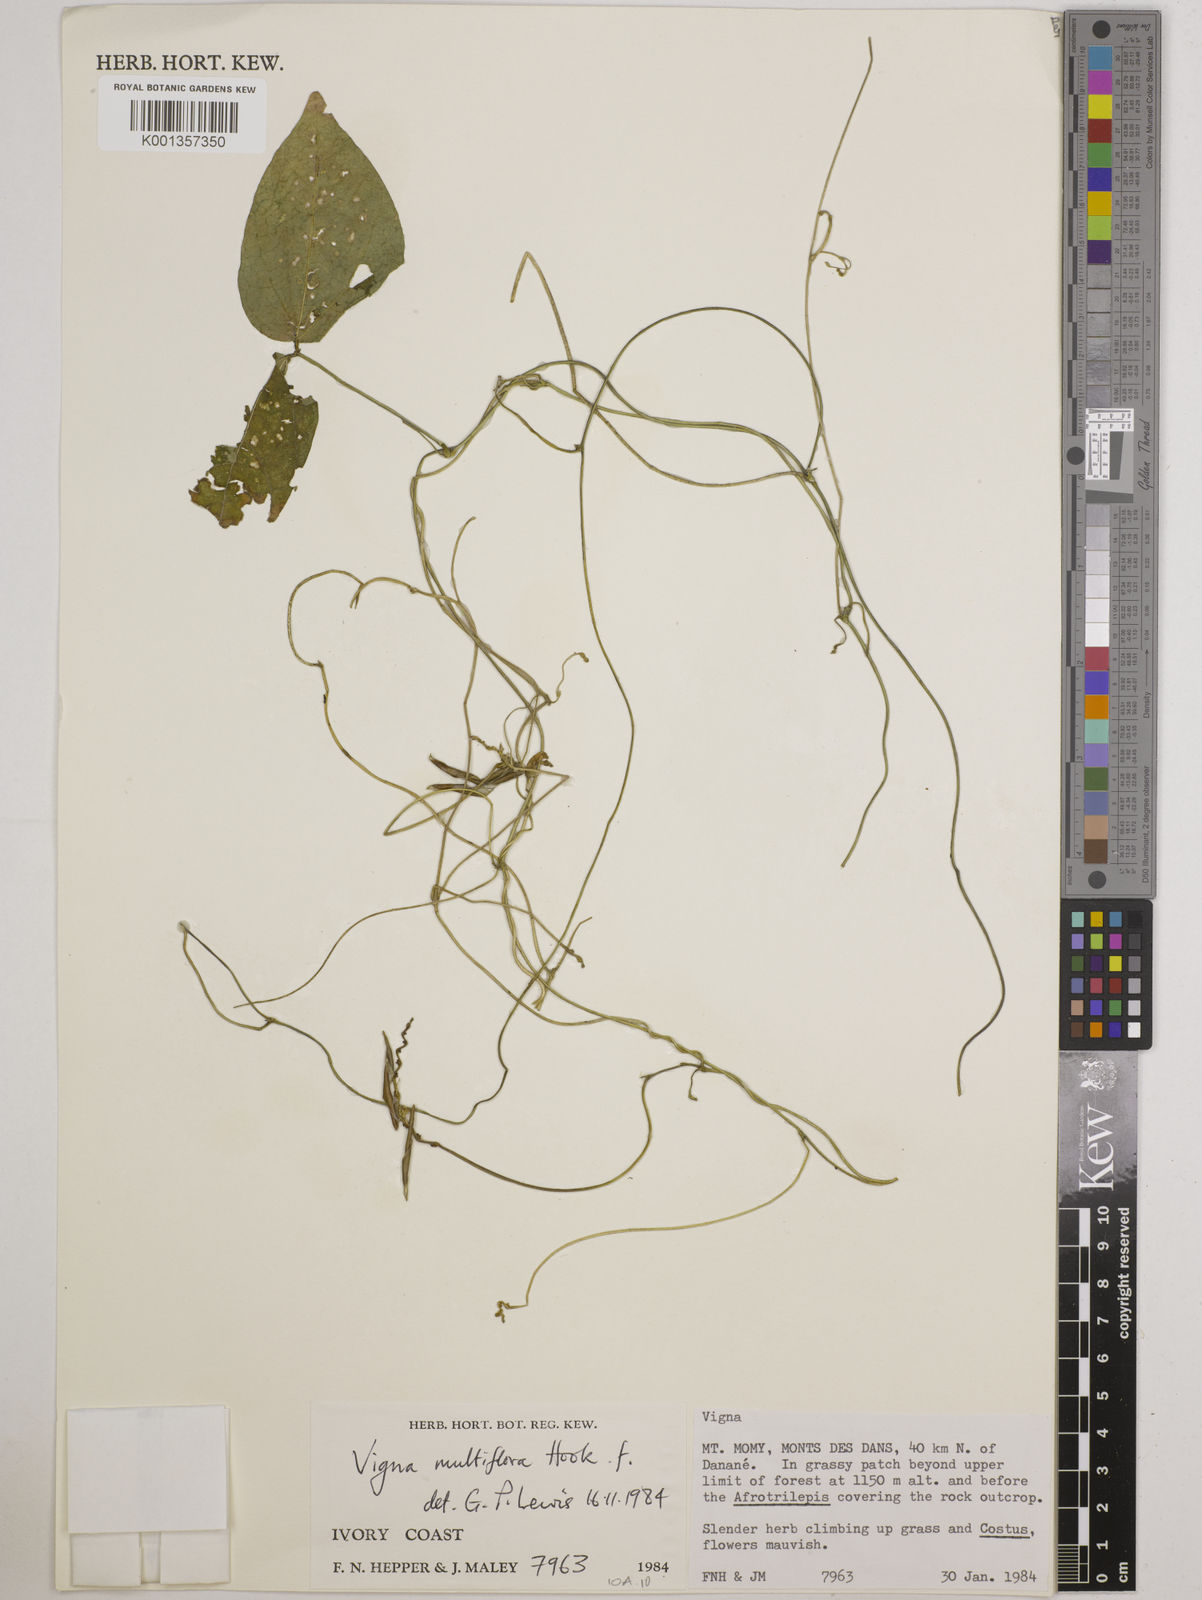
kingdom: Plantae
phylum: Tracheophyta
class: Magnoliopsida
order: Fabales
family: Fabaceae
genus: Vigna
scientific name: Vigna gracilis
